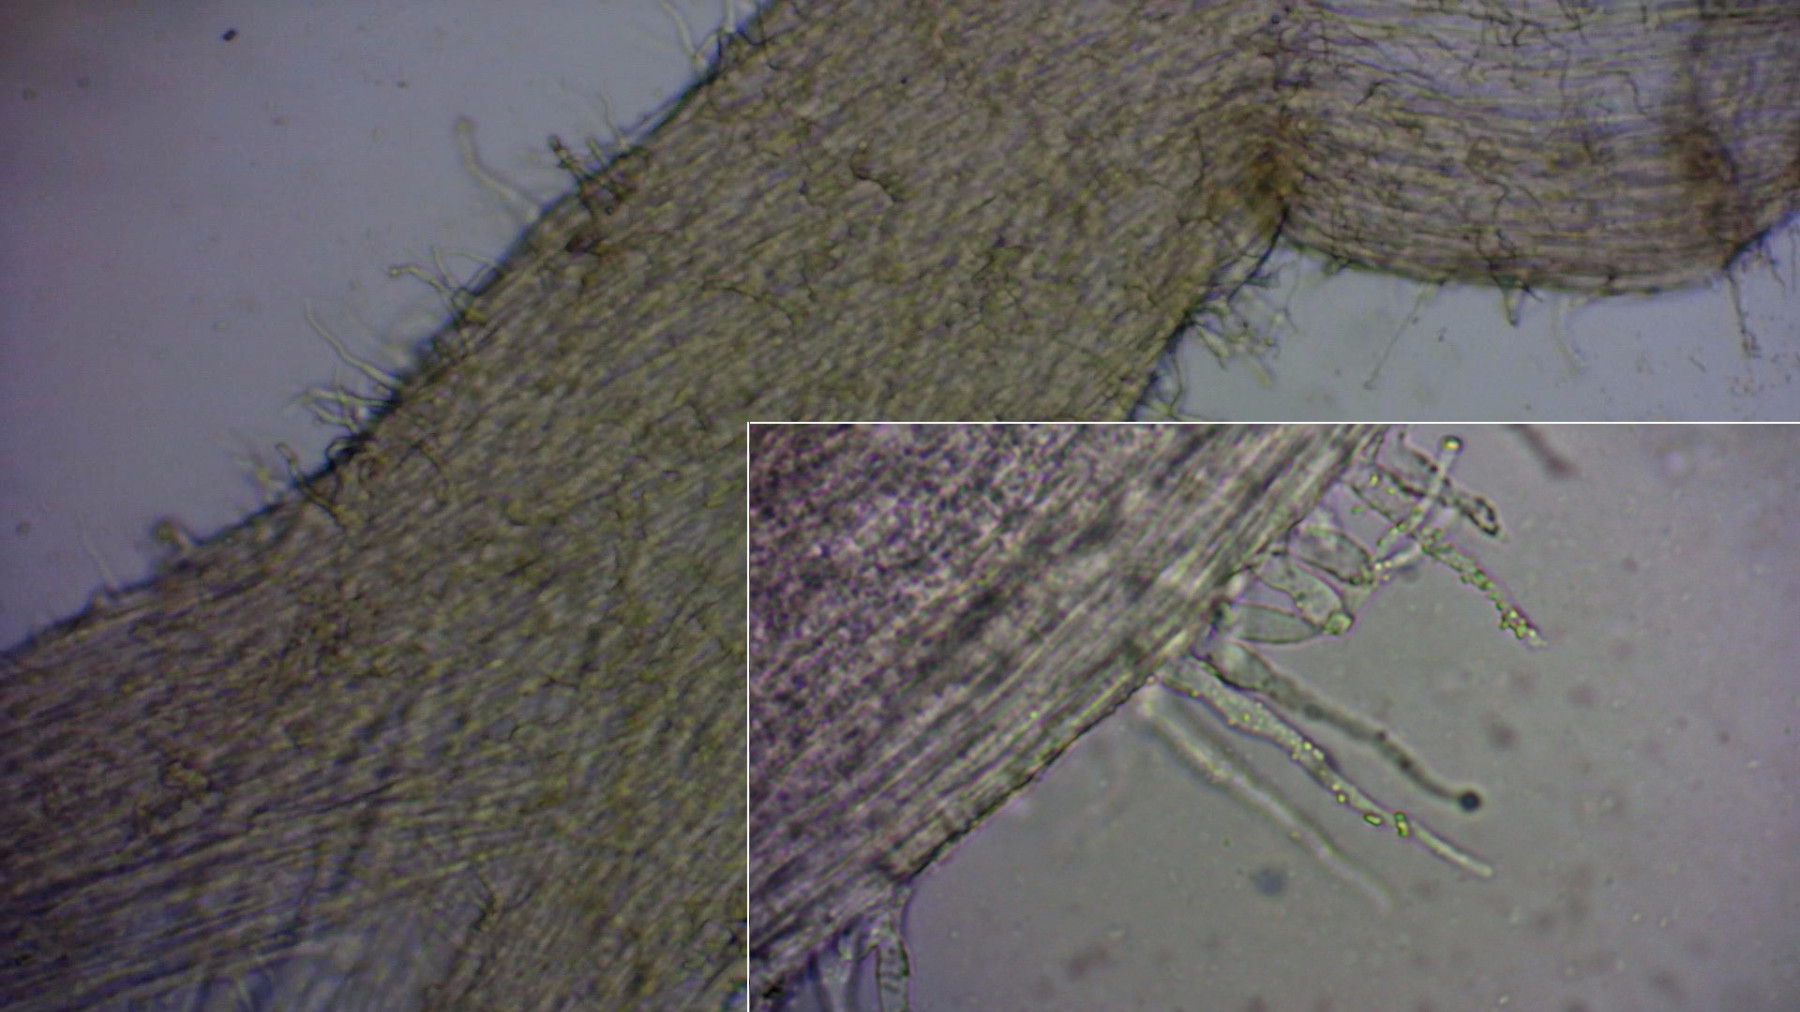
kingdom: Fungi
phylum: Basidiomycota
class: Agaricomycetes
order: Agaricales
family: Mycenaceae
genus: Hemimycena
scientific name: Hemimycena
